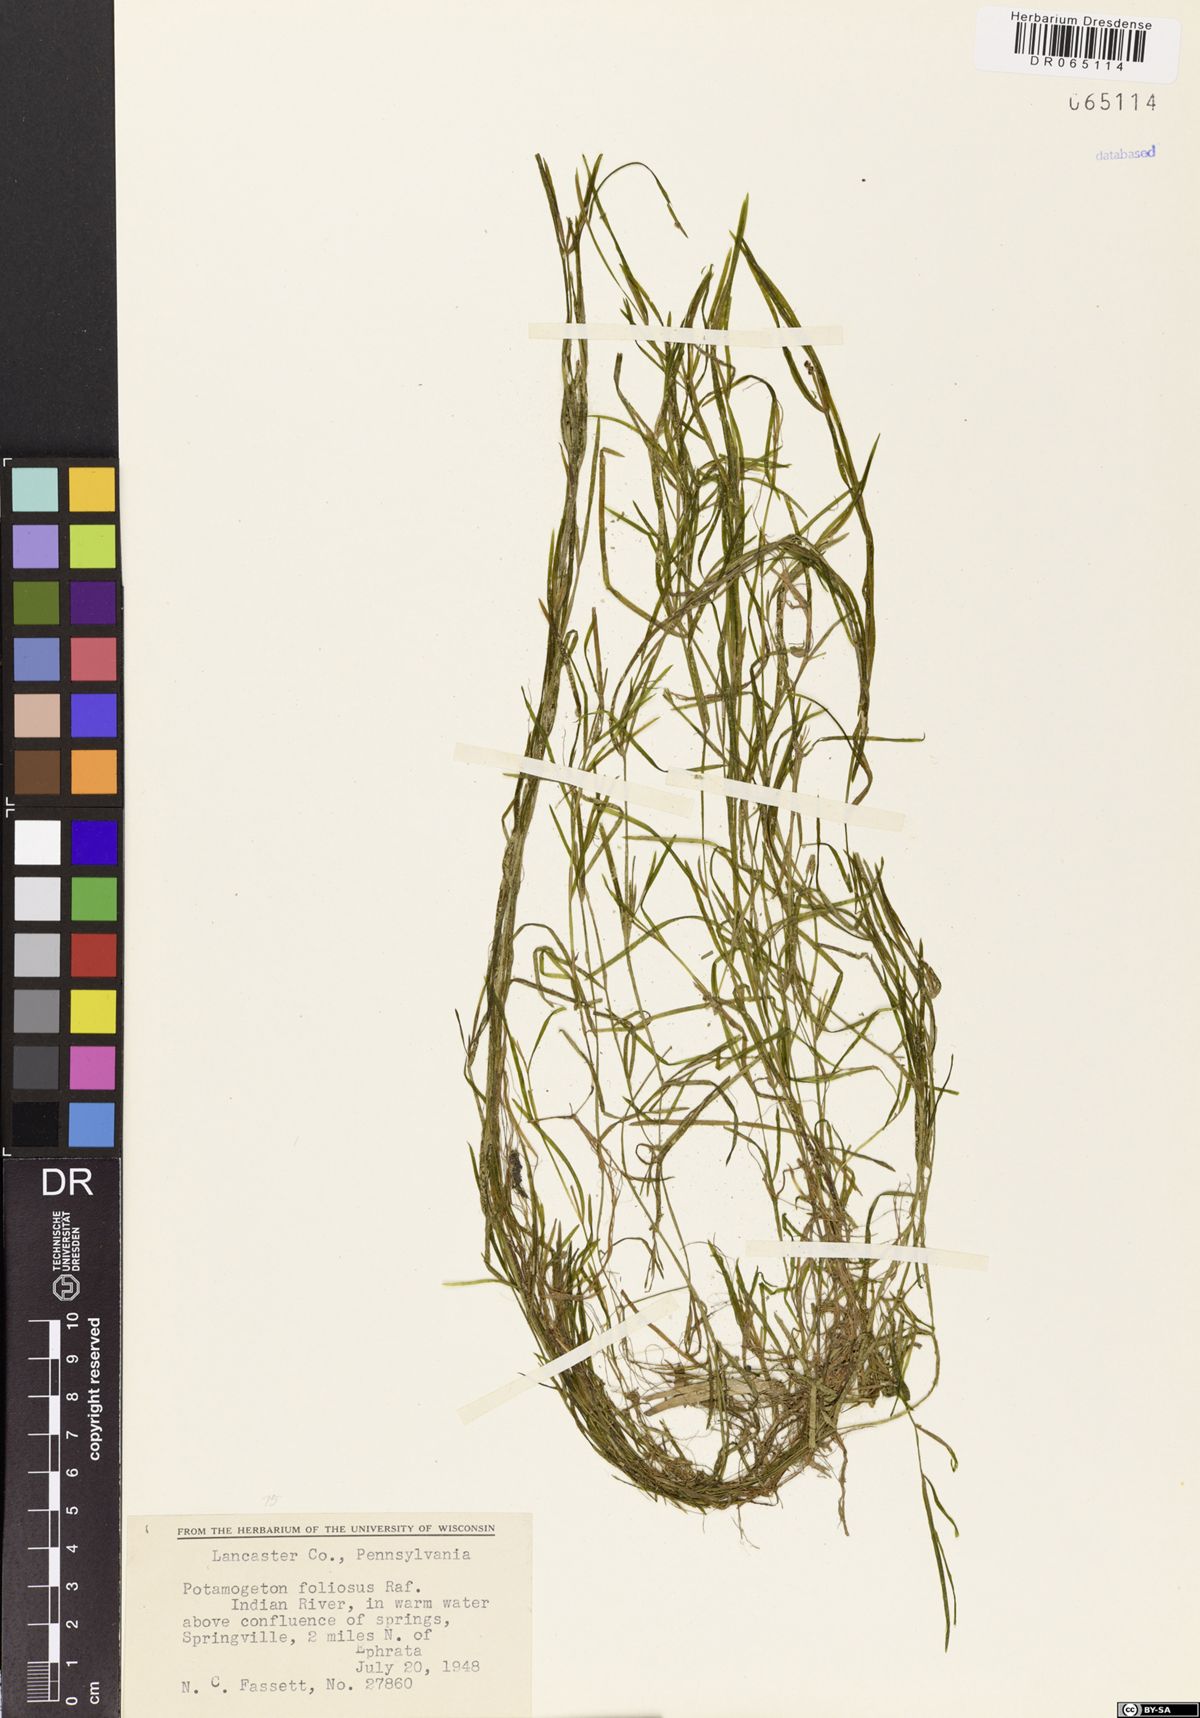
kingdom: Plantae
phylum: Tracheophyta
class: Liliopsida
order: Alismatales
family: Potamogetonaceae
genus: Potamogeton
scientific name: Potamogeton foliosus
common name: Leafy pondweed
